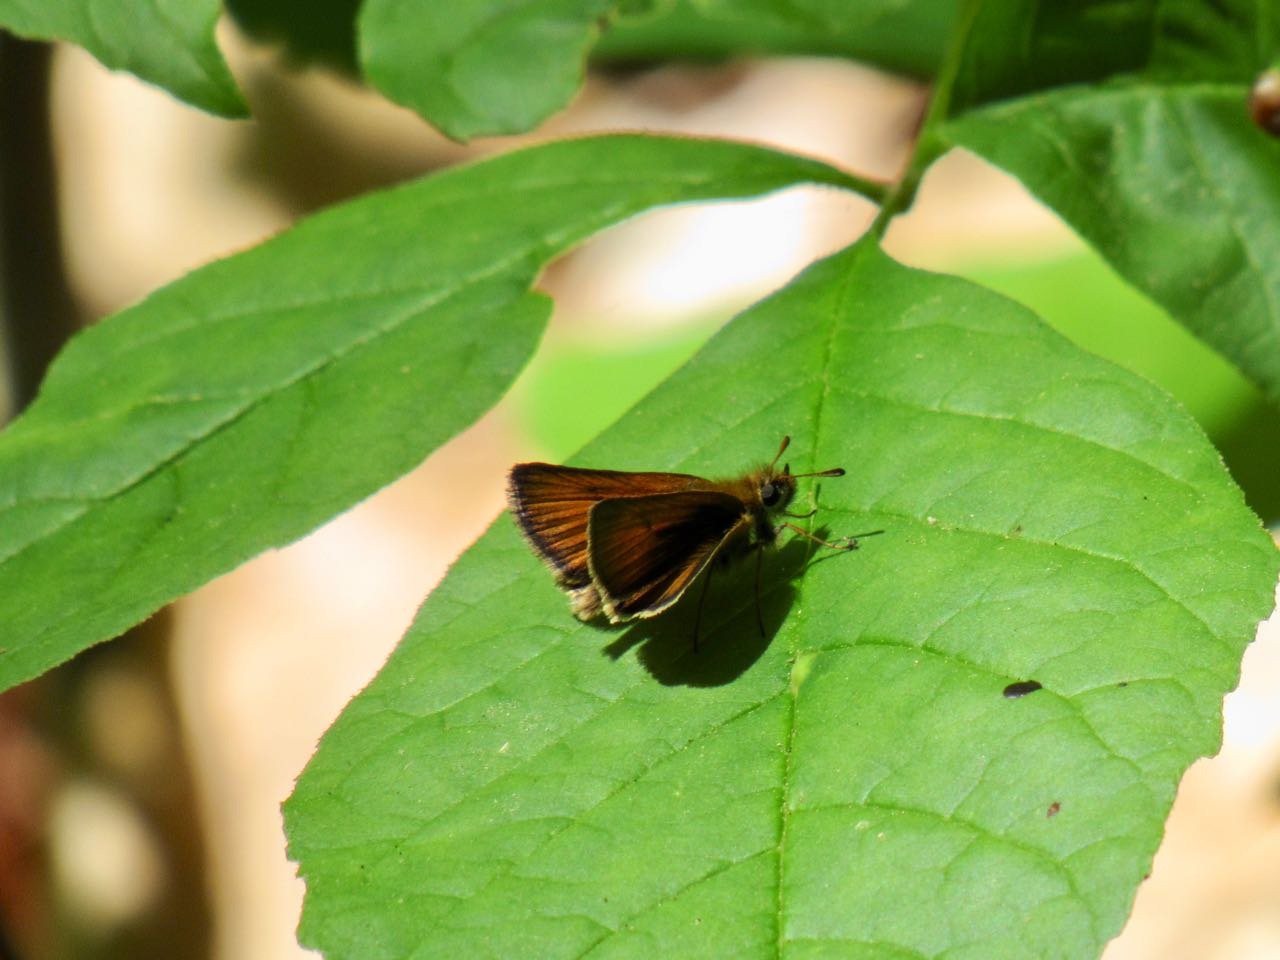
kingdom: Animalia
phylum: Arthropoda
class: Insecta
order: Lepidoptera
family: Hesperiidae
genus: Thymelicus
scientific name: Thymelicus lineola
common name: European Skipper
